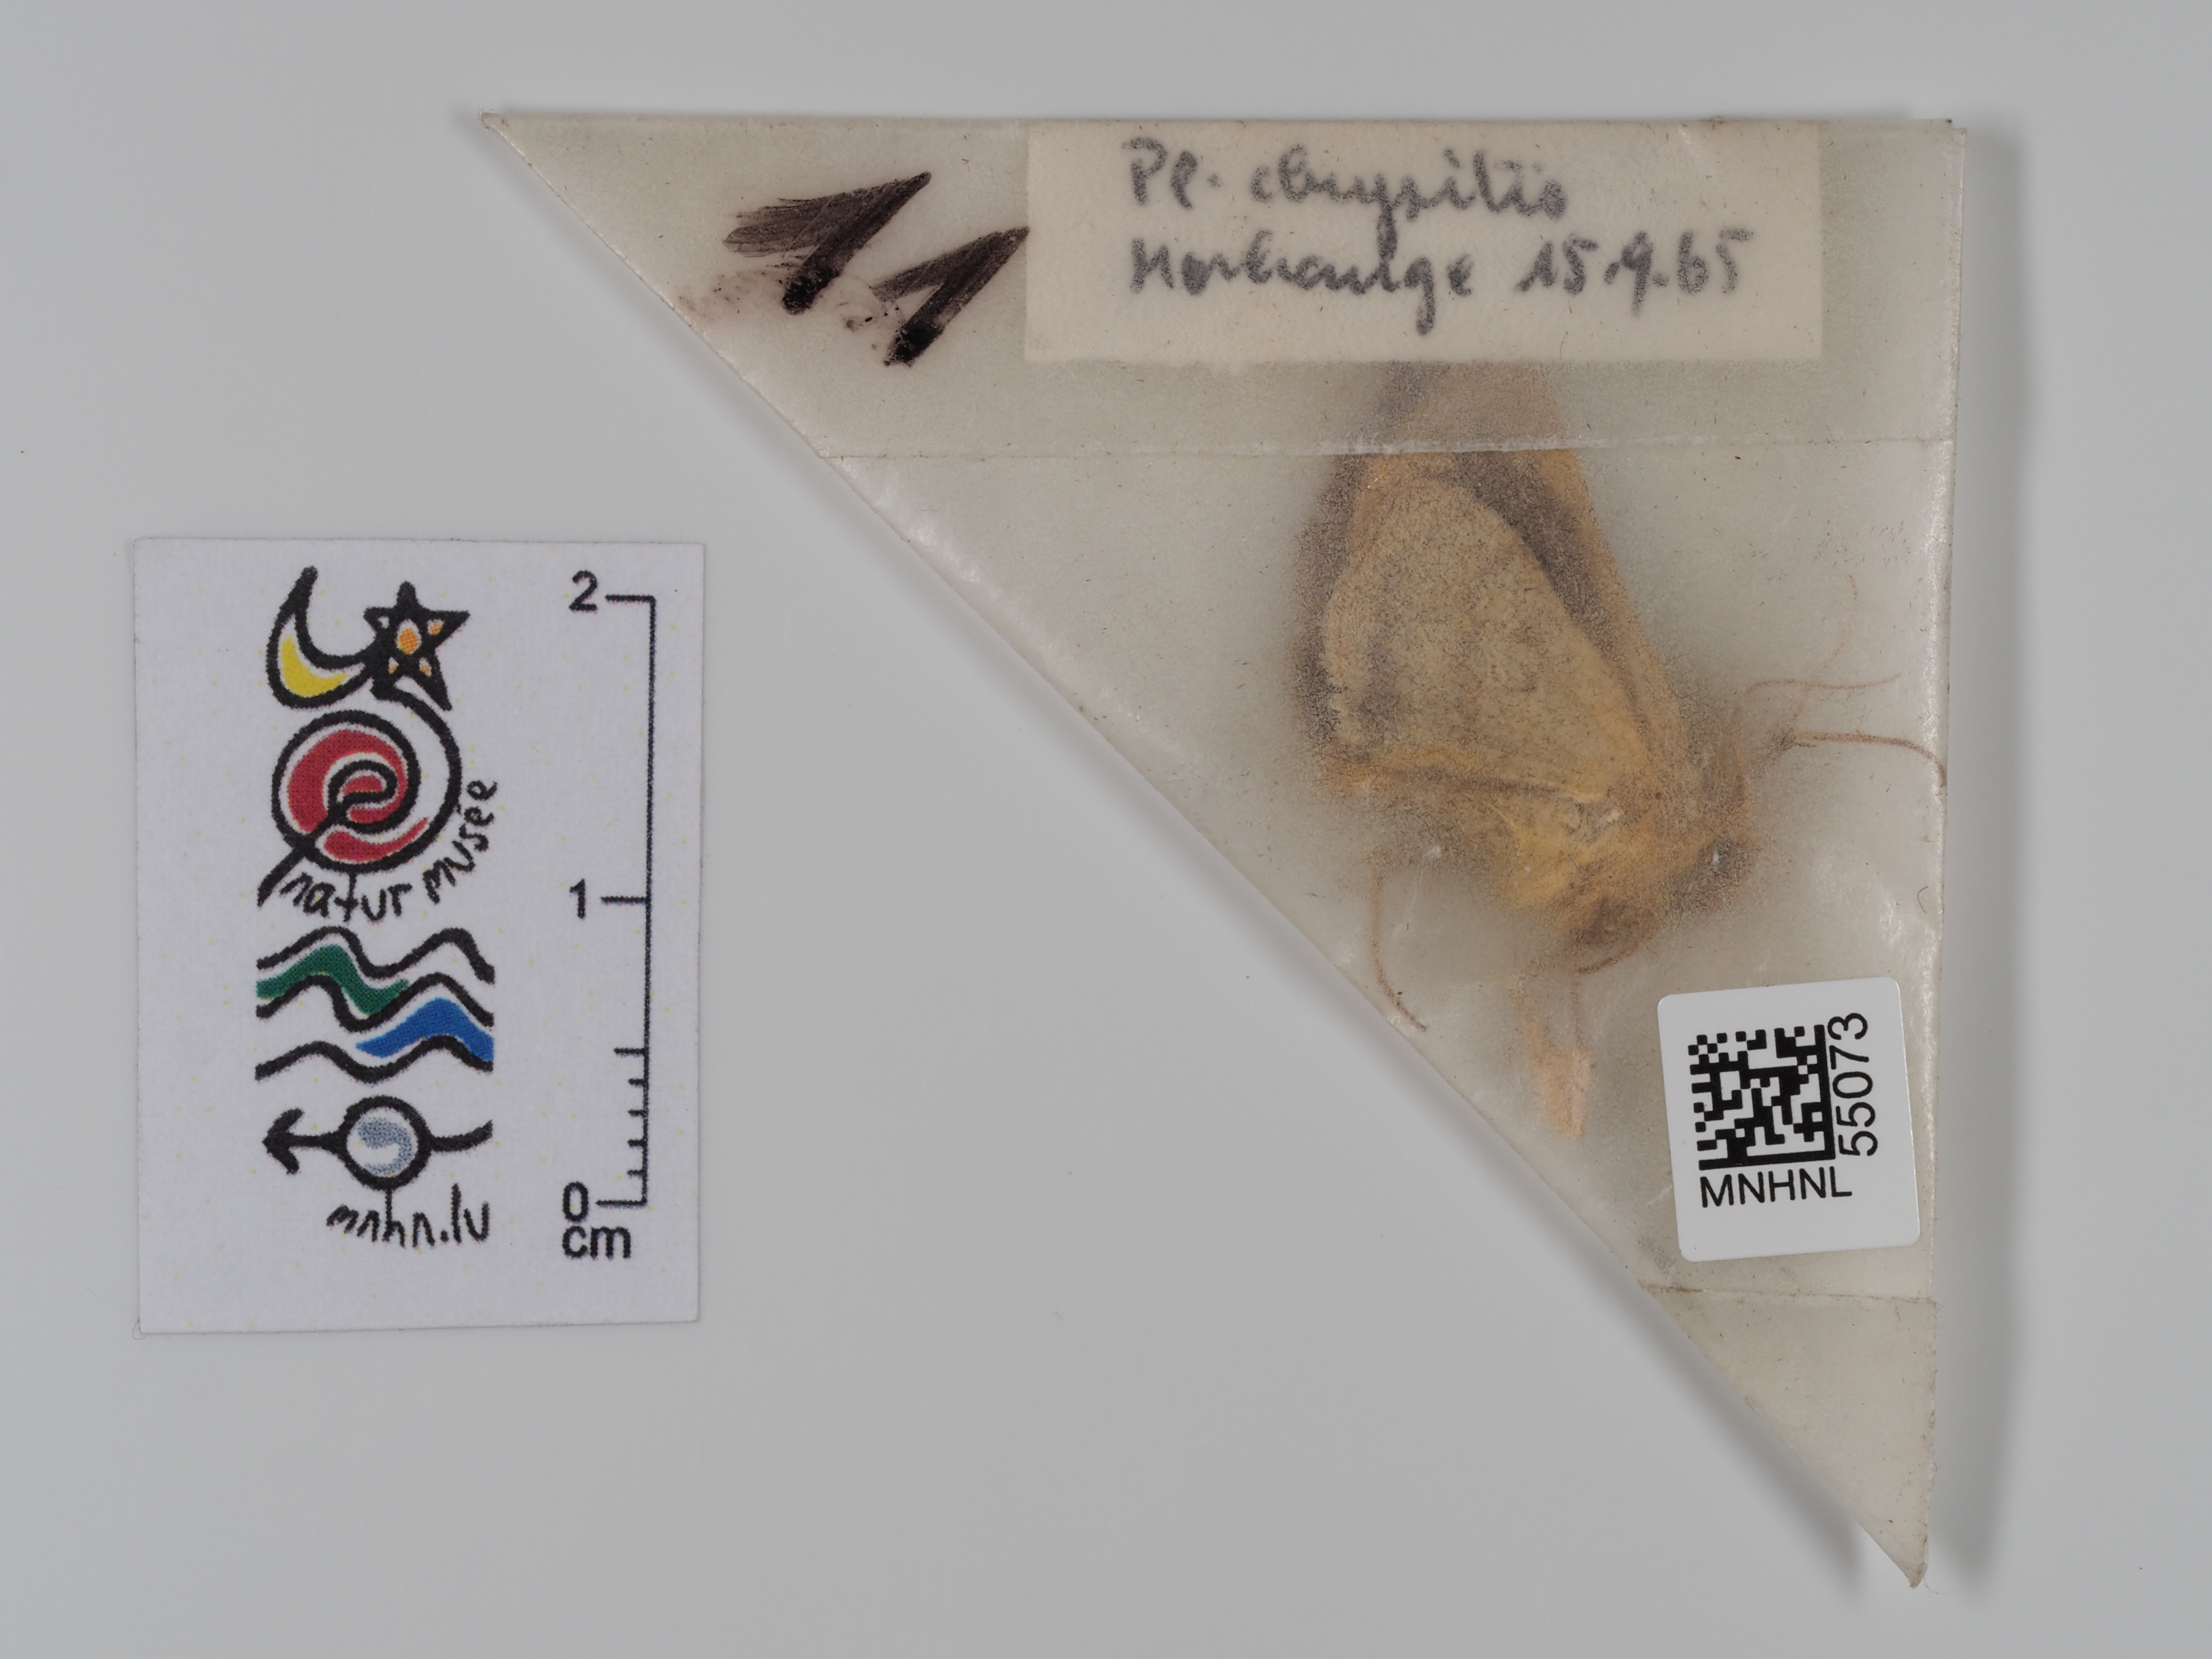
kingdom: Animalia
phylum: Arthropoda
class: Insecta
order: Lepidoptera
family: Noctuidae
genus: Diachrysia
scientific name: Diachrysia chrysitis
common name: Burnished brass
